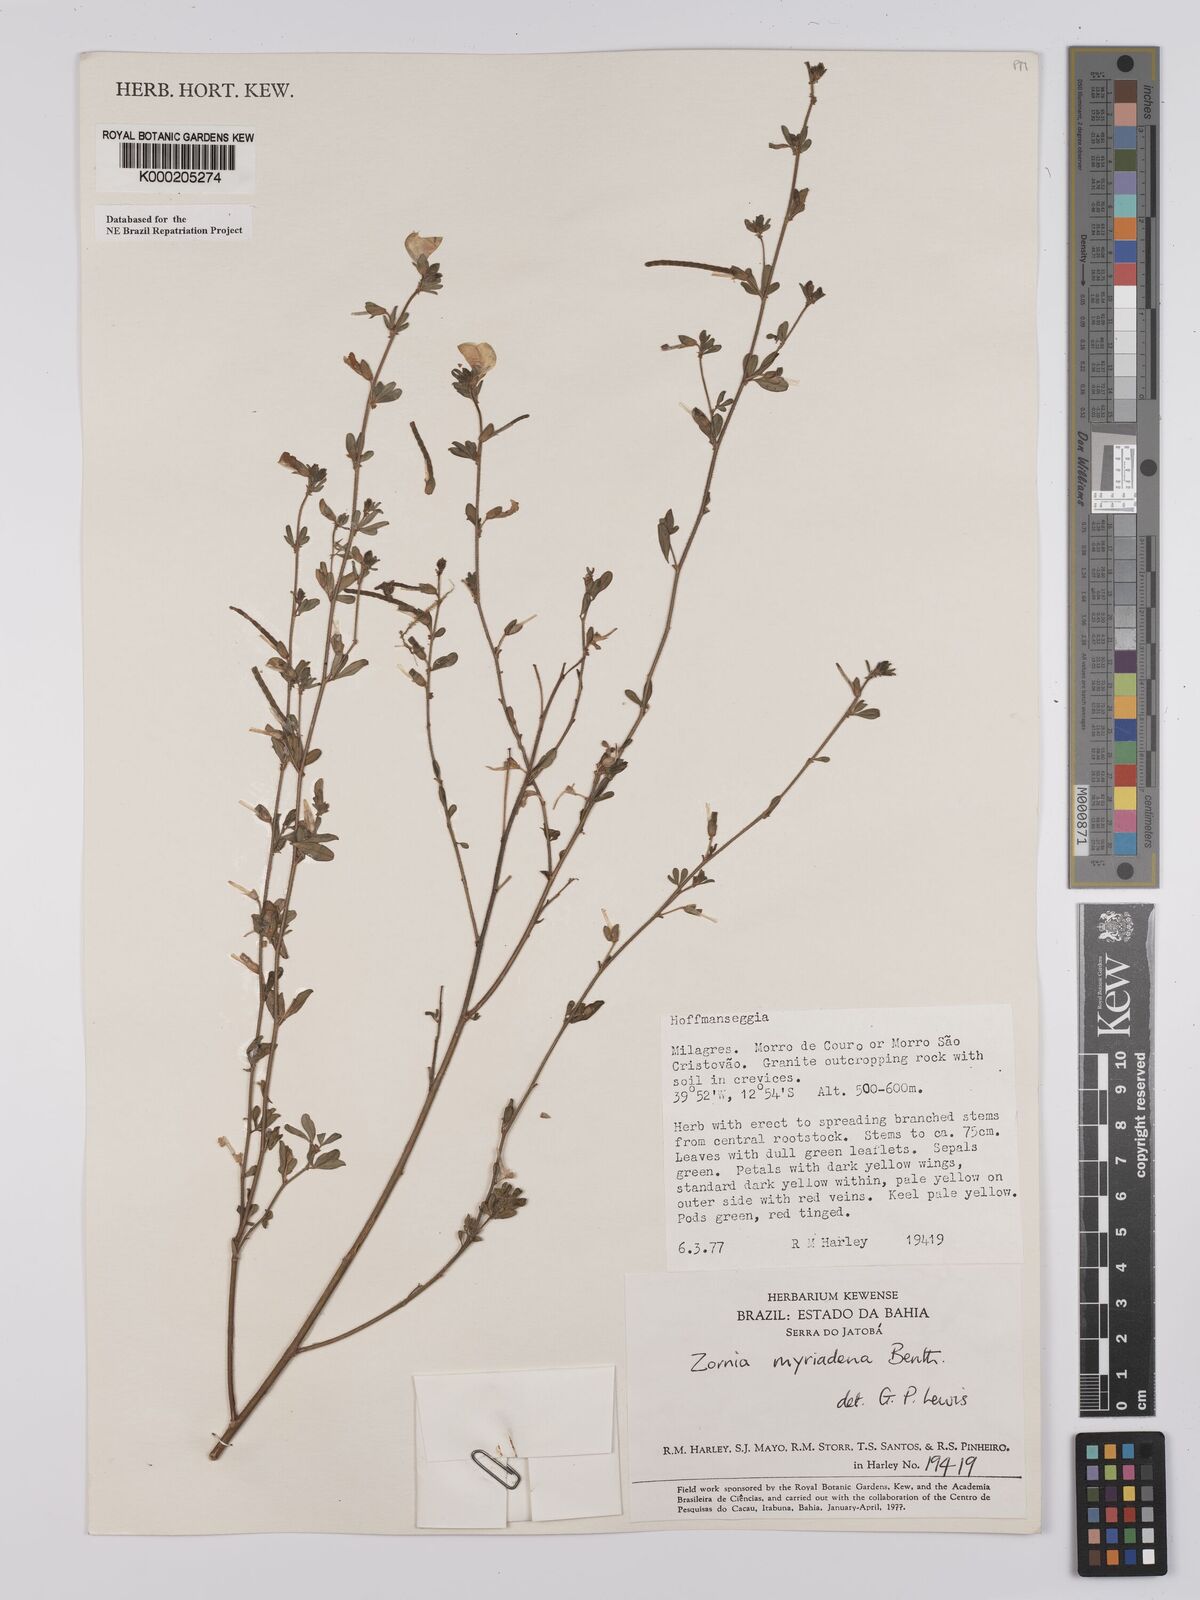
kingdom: Plantae
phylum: Tracheophyta
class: Magnoliopsida
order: Fabales
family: Fabaceae
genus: Zornia
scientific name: Zornia myriadena
